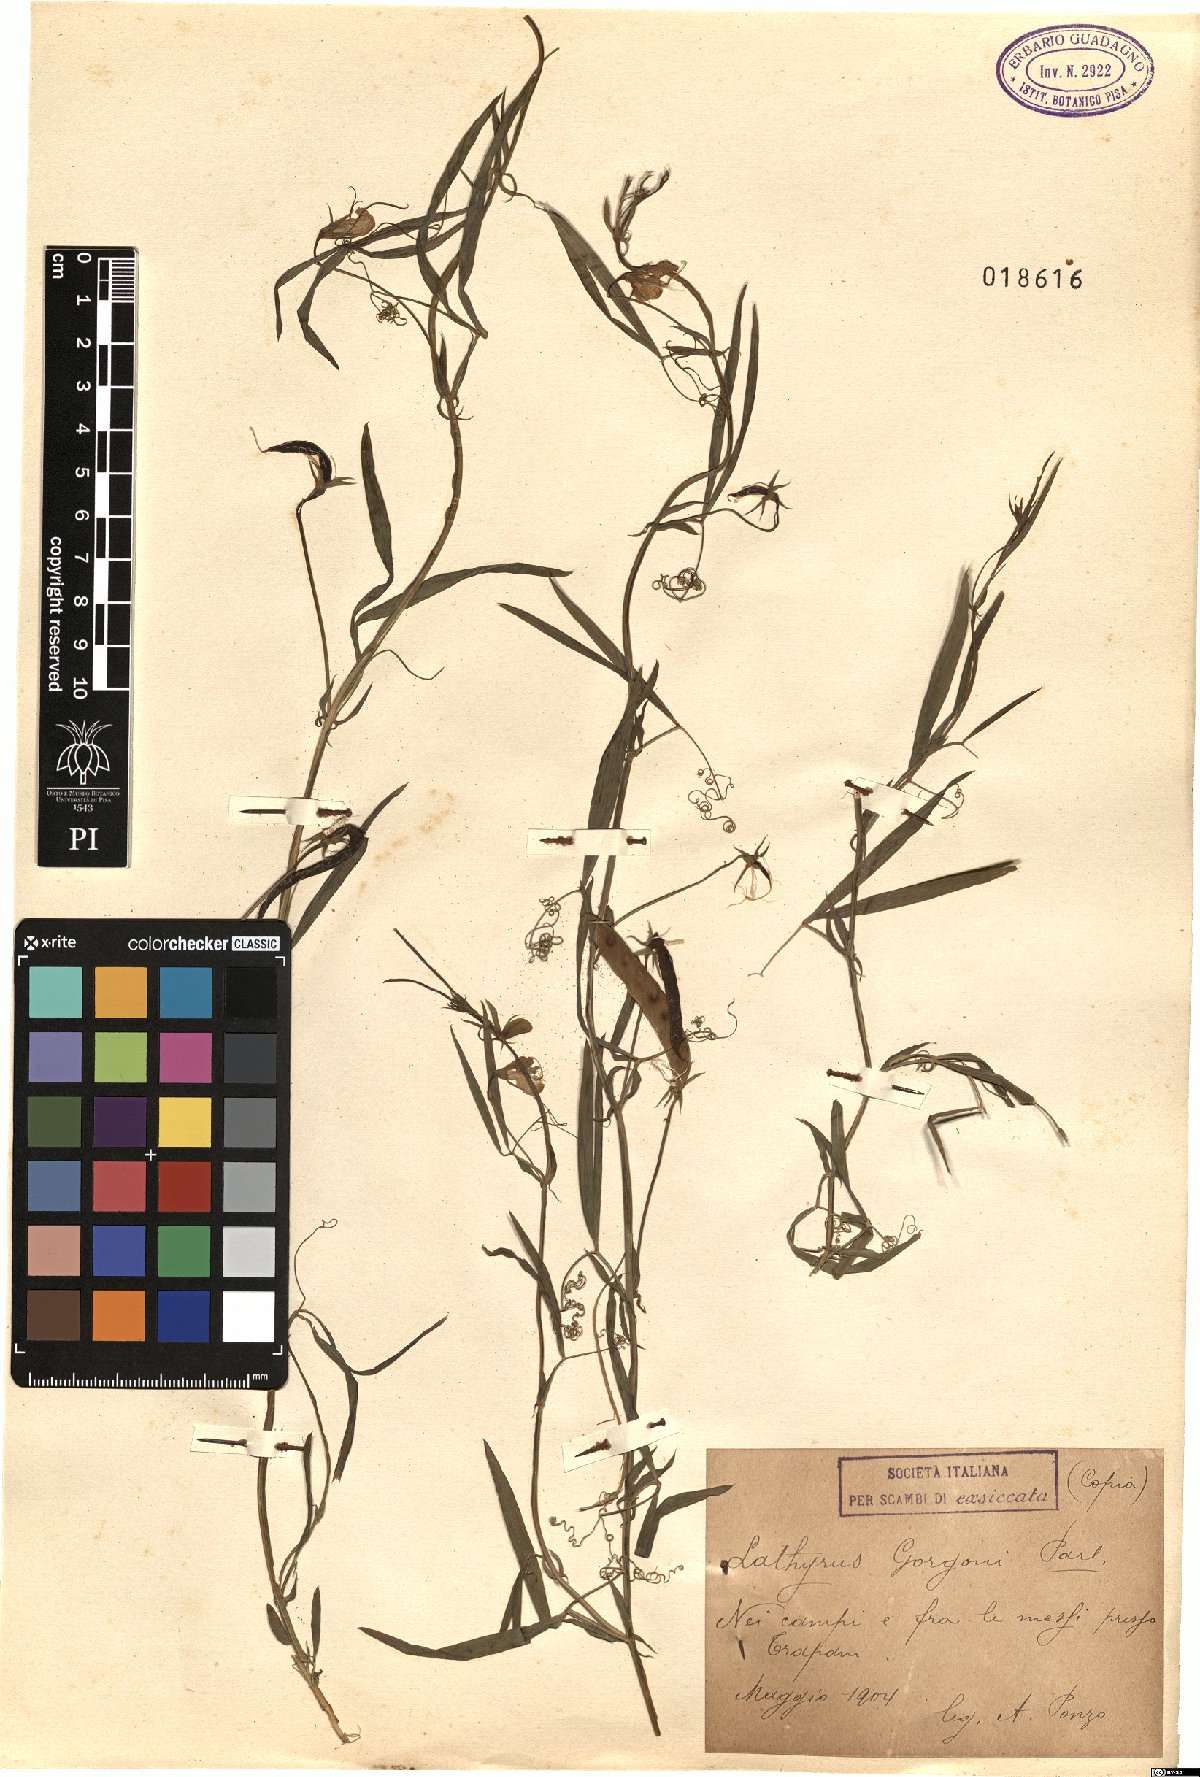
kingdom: Plantae
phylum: Tracheophyta
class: Magnoliopsida
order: Fabales
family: Fabaceae
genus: Lathyrus
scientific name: Lathyrus gorgoni
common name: Rare pea
